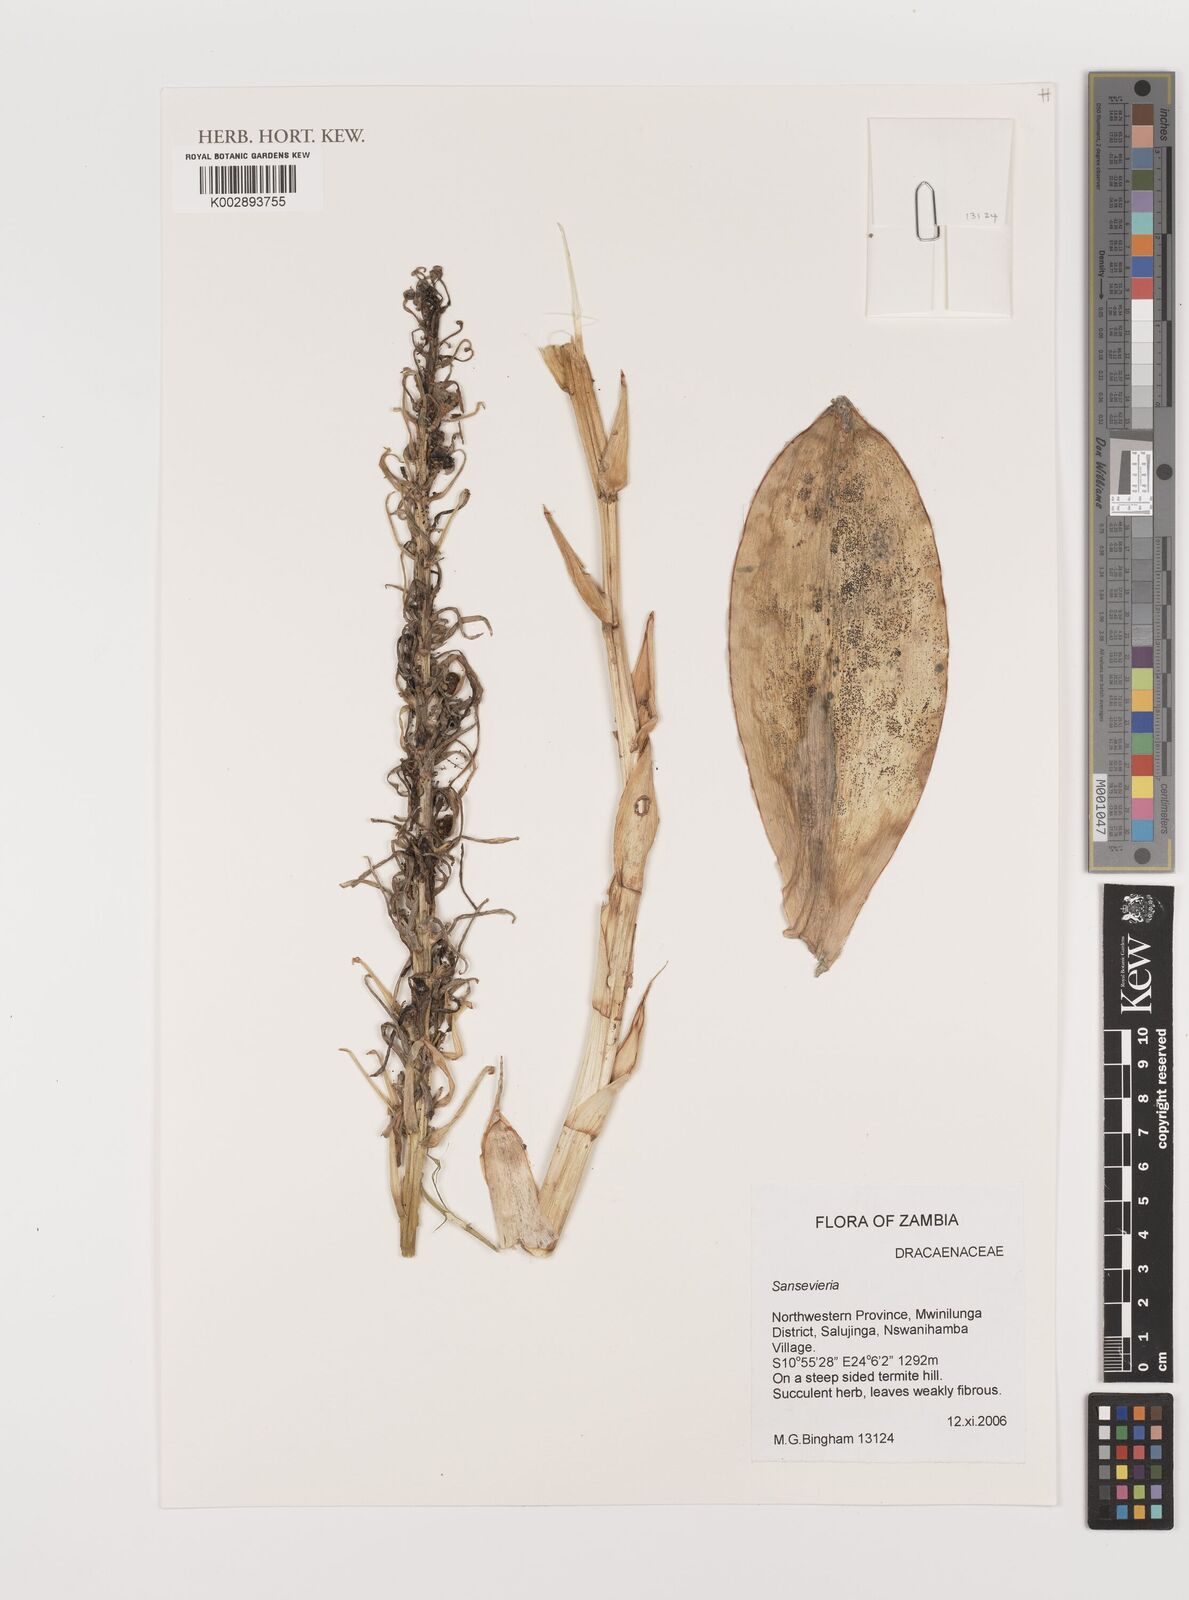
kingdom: Plantae
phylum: Tracheophyta
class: Liliopsida
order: Asparagales
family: Asparagaceae
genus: Dracaena
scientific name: Dracaena
